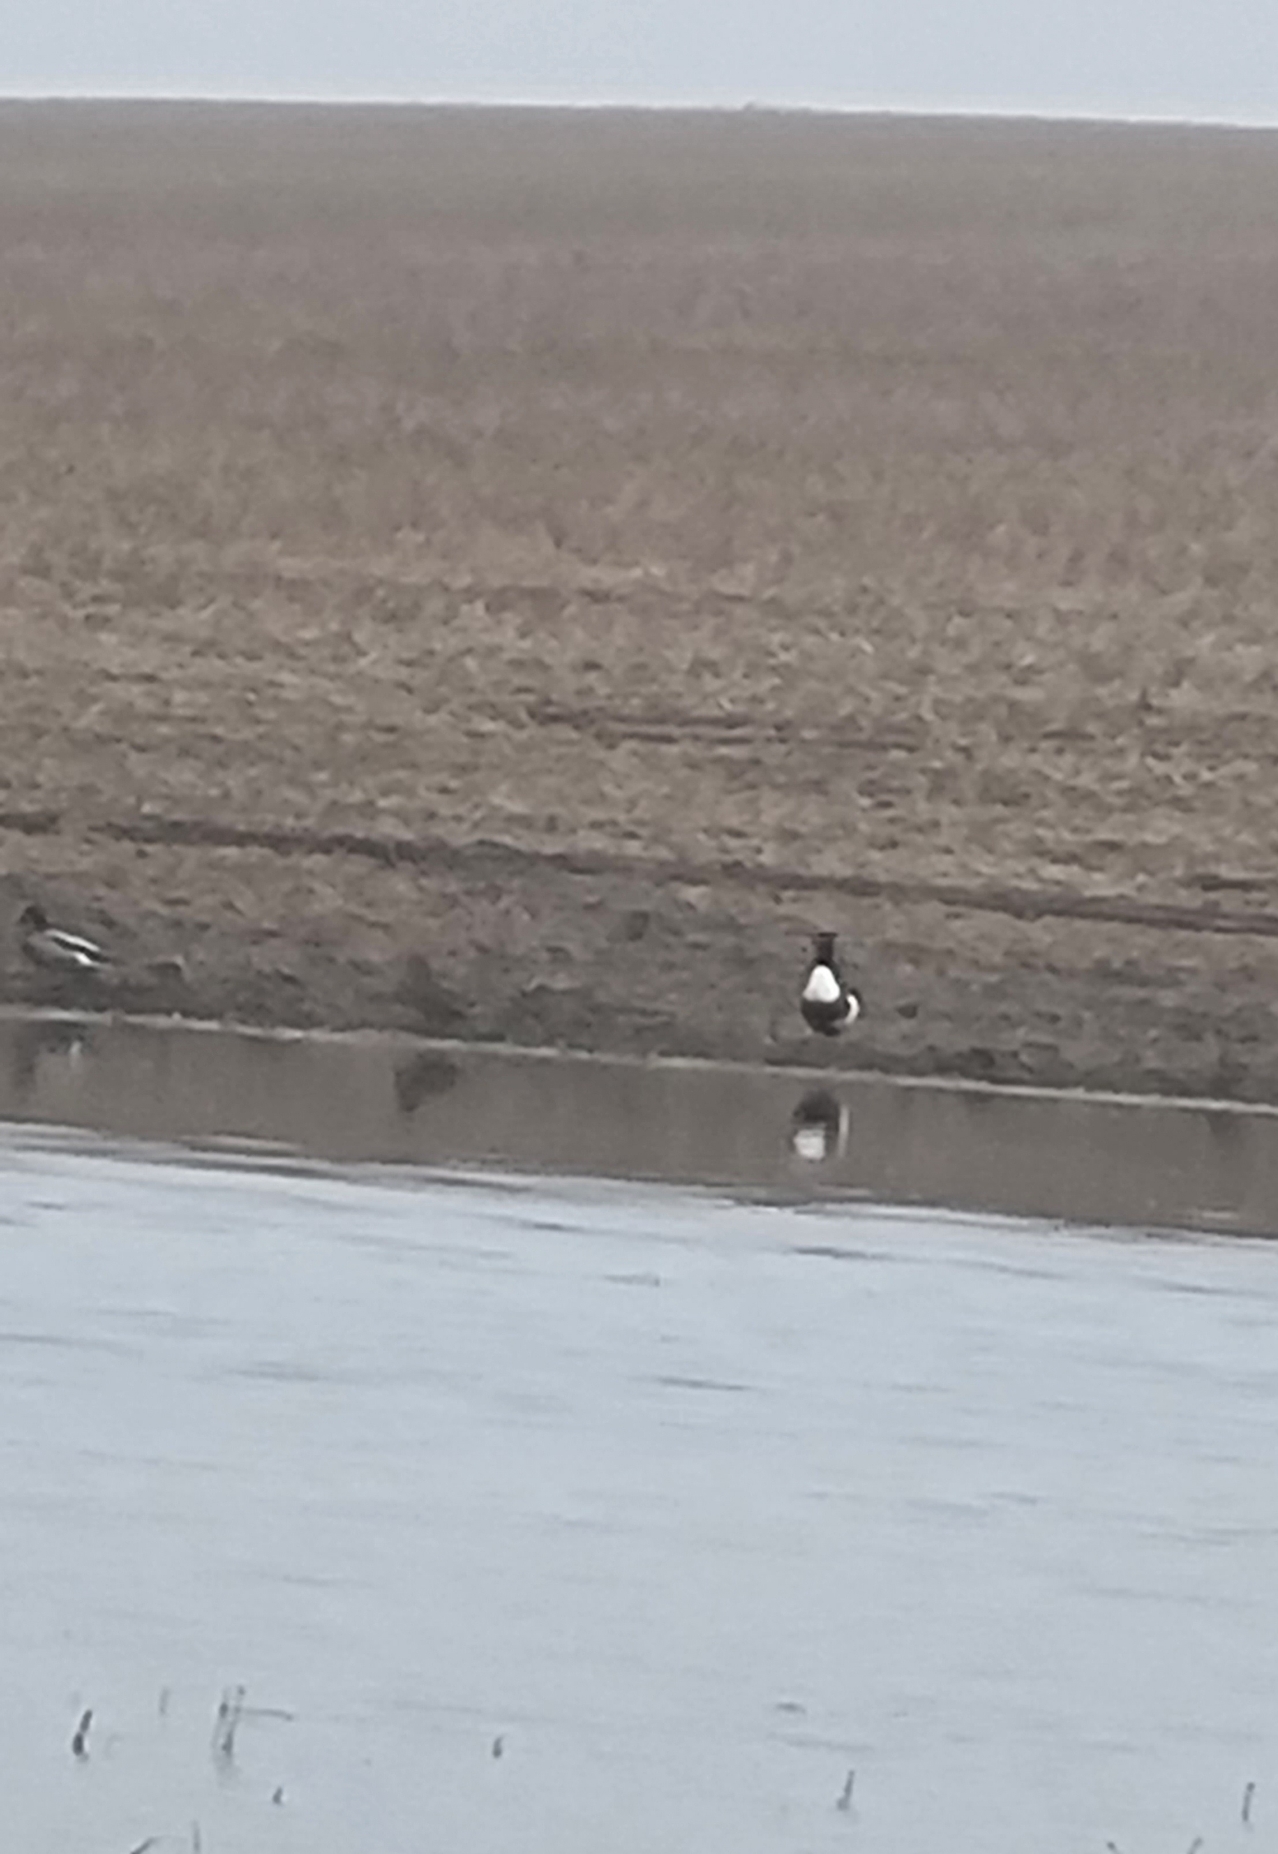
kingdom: Animalia
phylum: Chordata
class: Aves
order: Anseriformes
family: Anatidae
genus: Tadorna
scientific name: Tadorna tadorna
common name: Gravand
